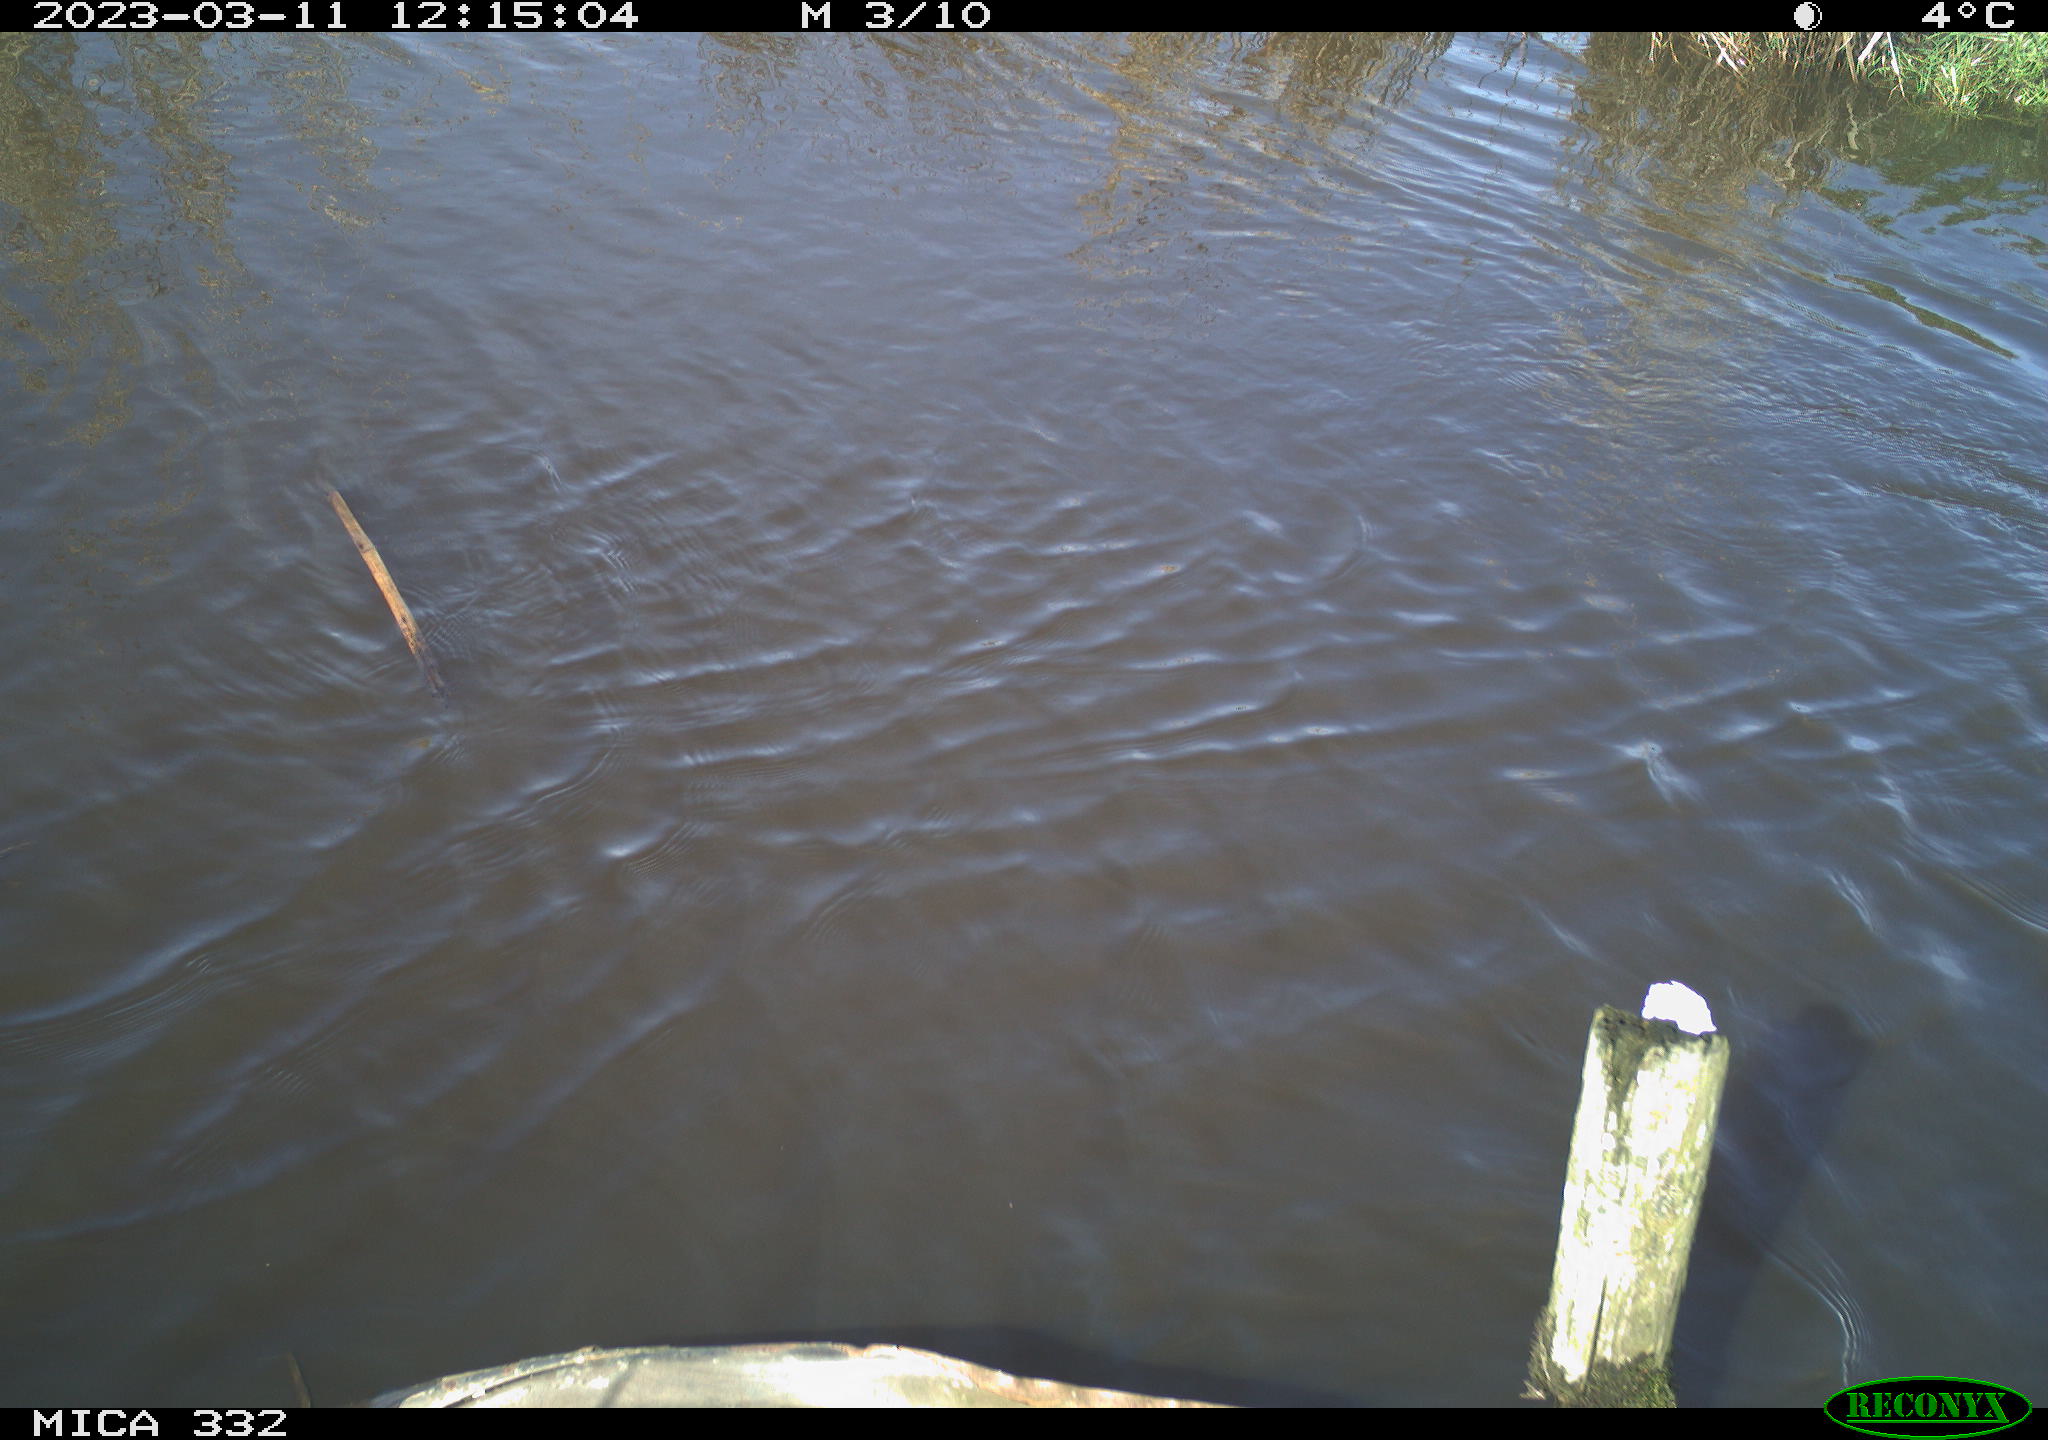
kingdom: Animalia
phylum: Chordata
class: Aves
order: Pelecaniformes
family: Ardeidae
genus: Ardea
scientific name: Ardea
